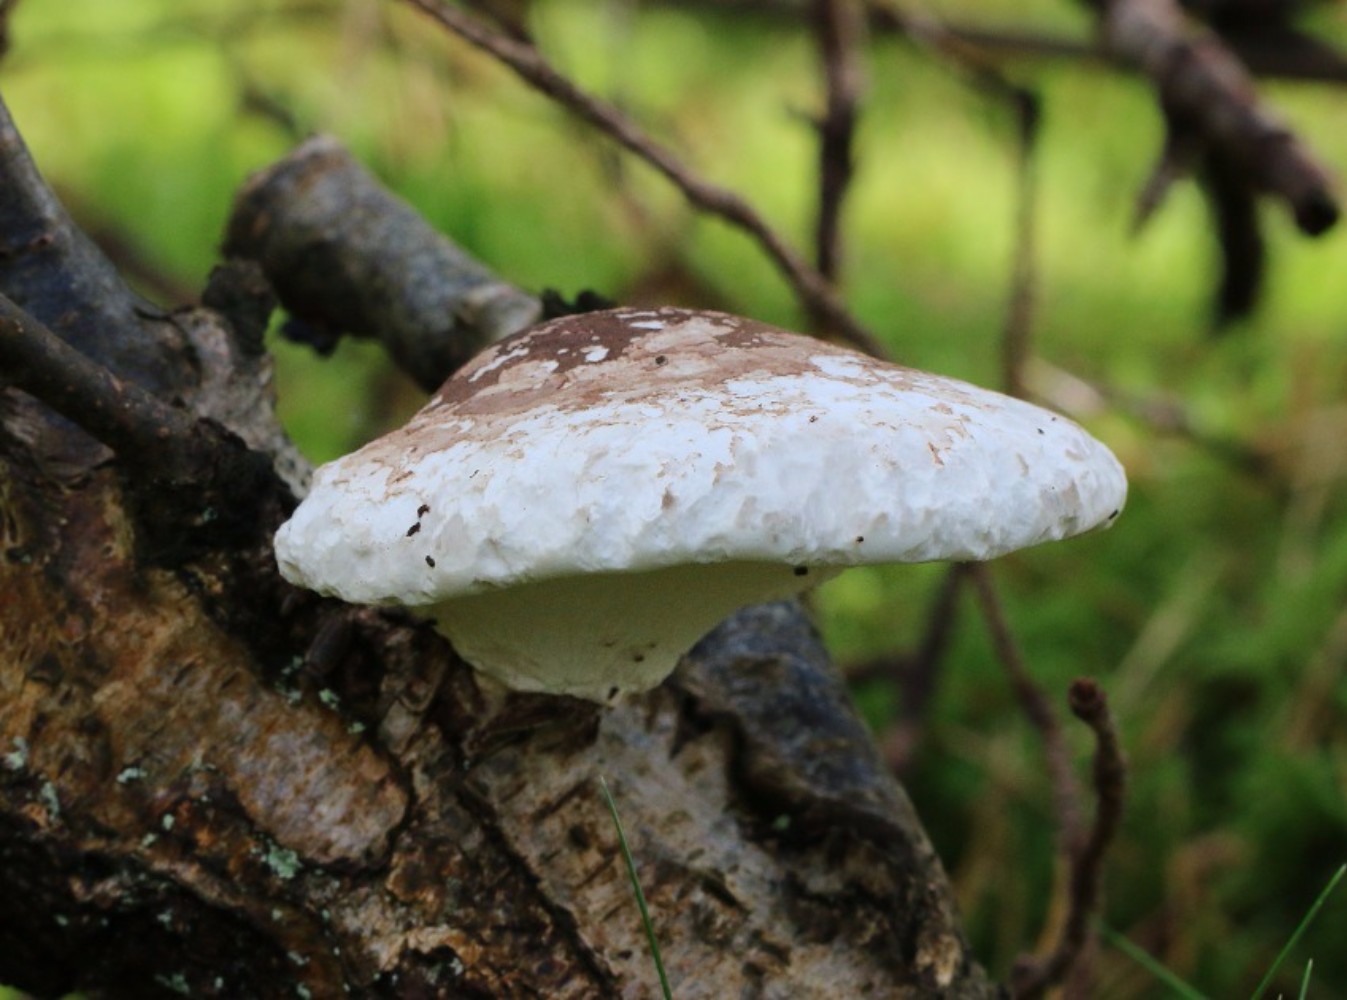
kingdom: Fungi
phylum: Basidiomycota
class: Agaricomycetes
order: Polyporales
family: Fomitopsidaceae
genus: Fomitopsis
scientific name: Fomitopsis betulina
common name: birkeporesvamp
